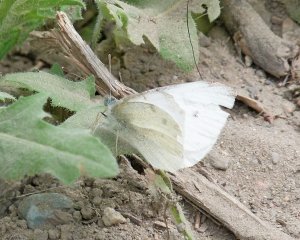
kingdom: Animalia
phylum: Arthropoda
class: Insecta
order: Lepidoptera
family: Pieridae
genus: Pieris
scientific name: Pieris rapae
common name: Cabbage White
